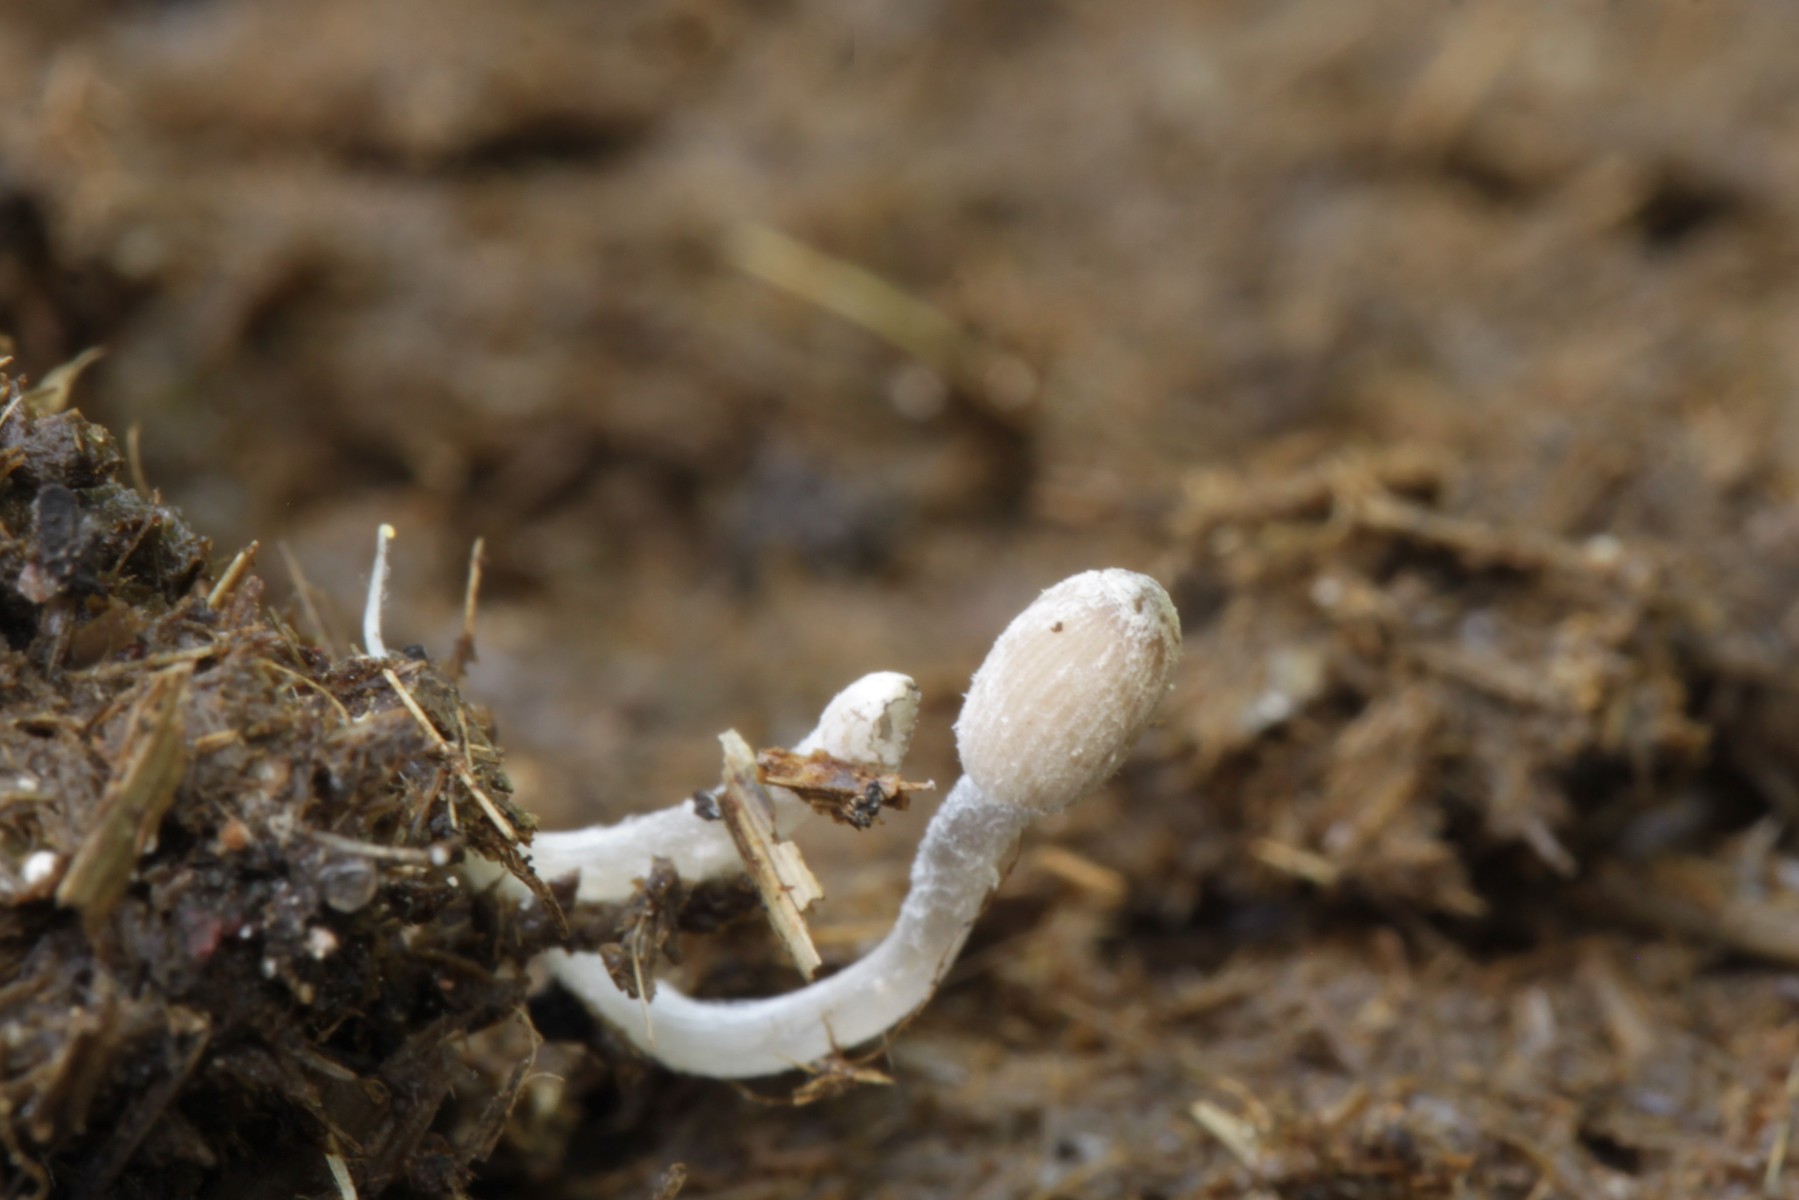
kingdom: Fungi
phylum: Basidiomycota
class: Agaricomycetes
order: Agaricales
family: Psathyrellaceae
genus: Coprinopsis
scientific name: Coprinopsis luteocephala
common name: gullig blækhat
